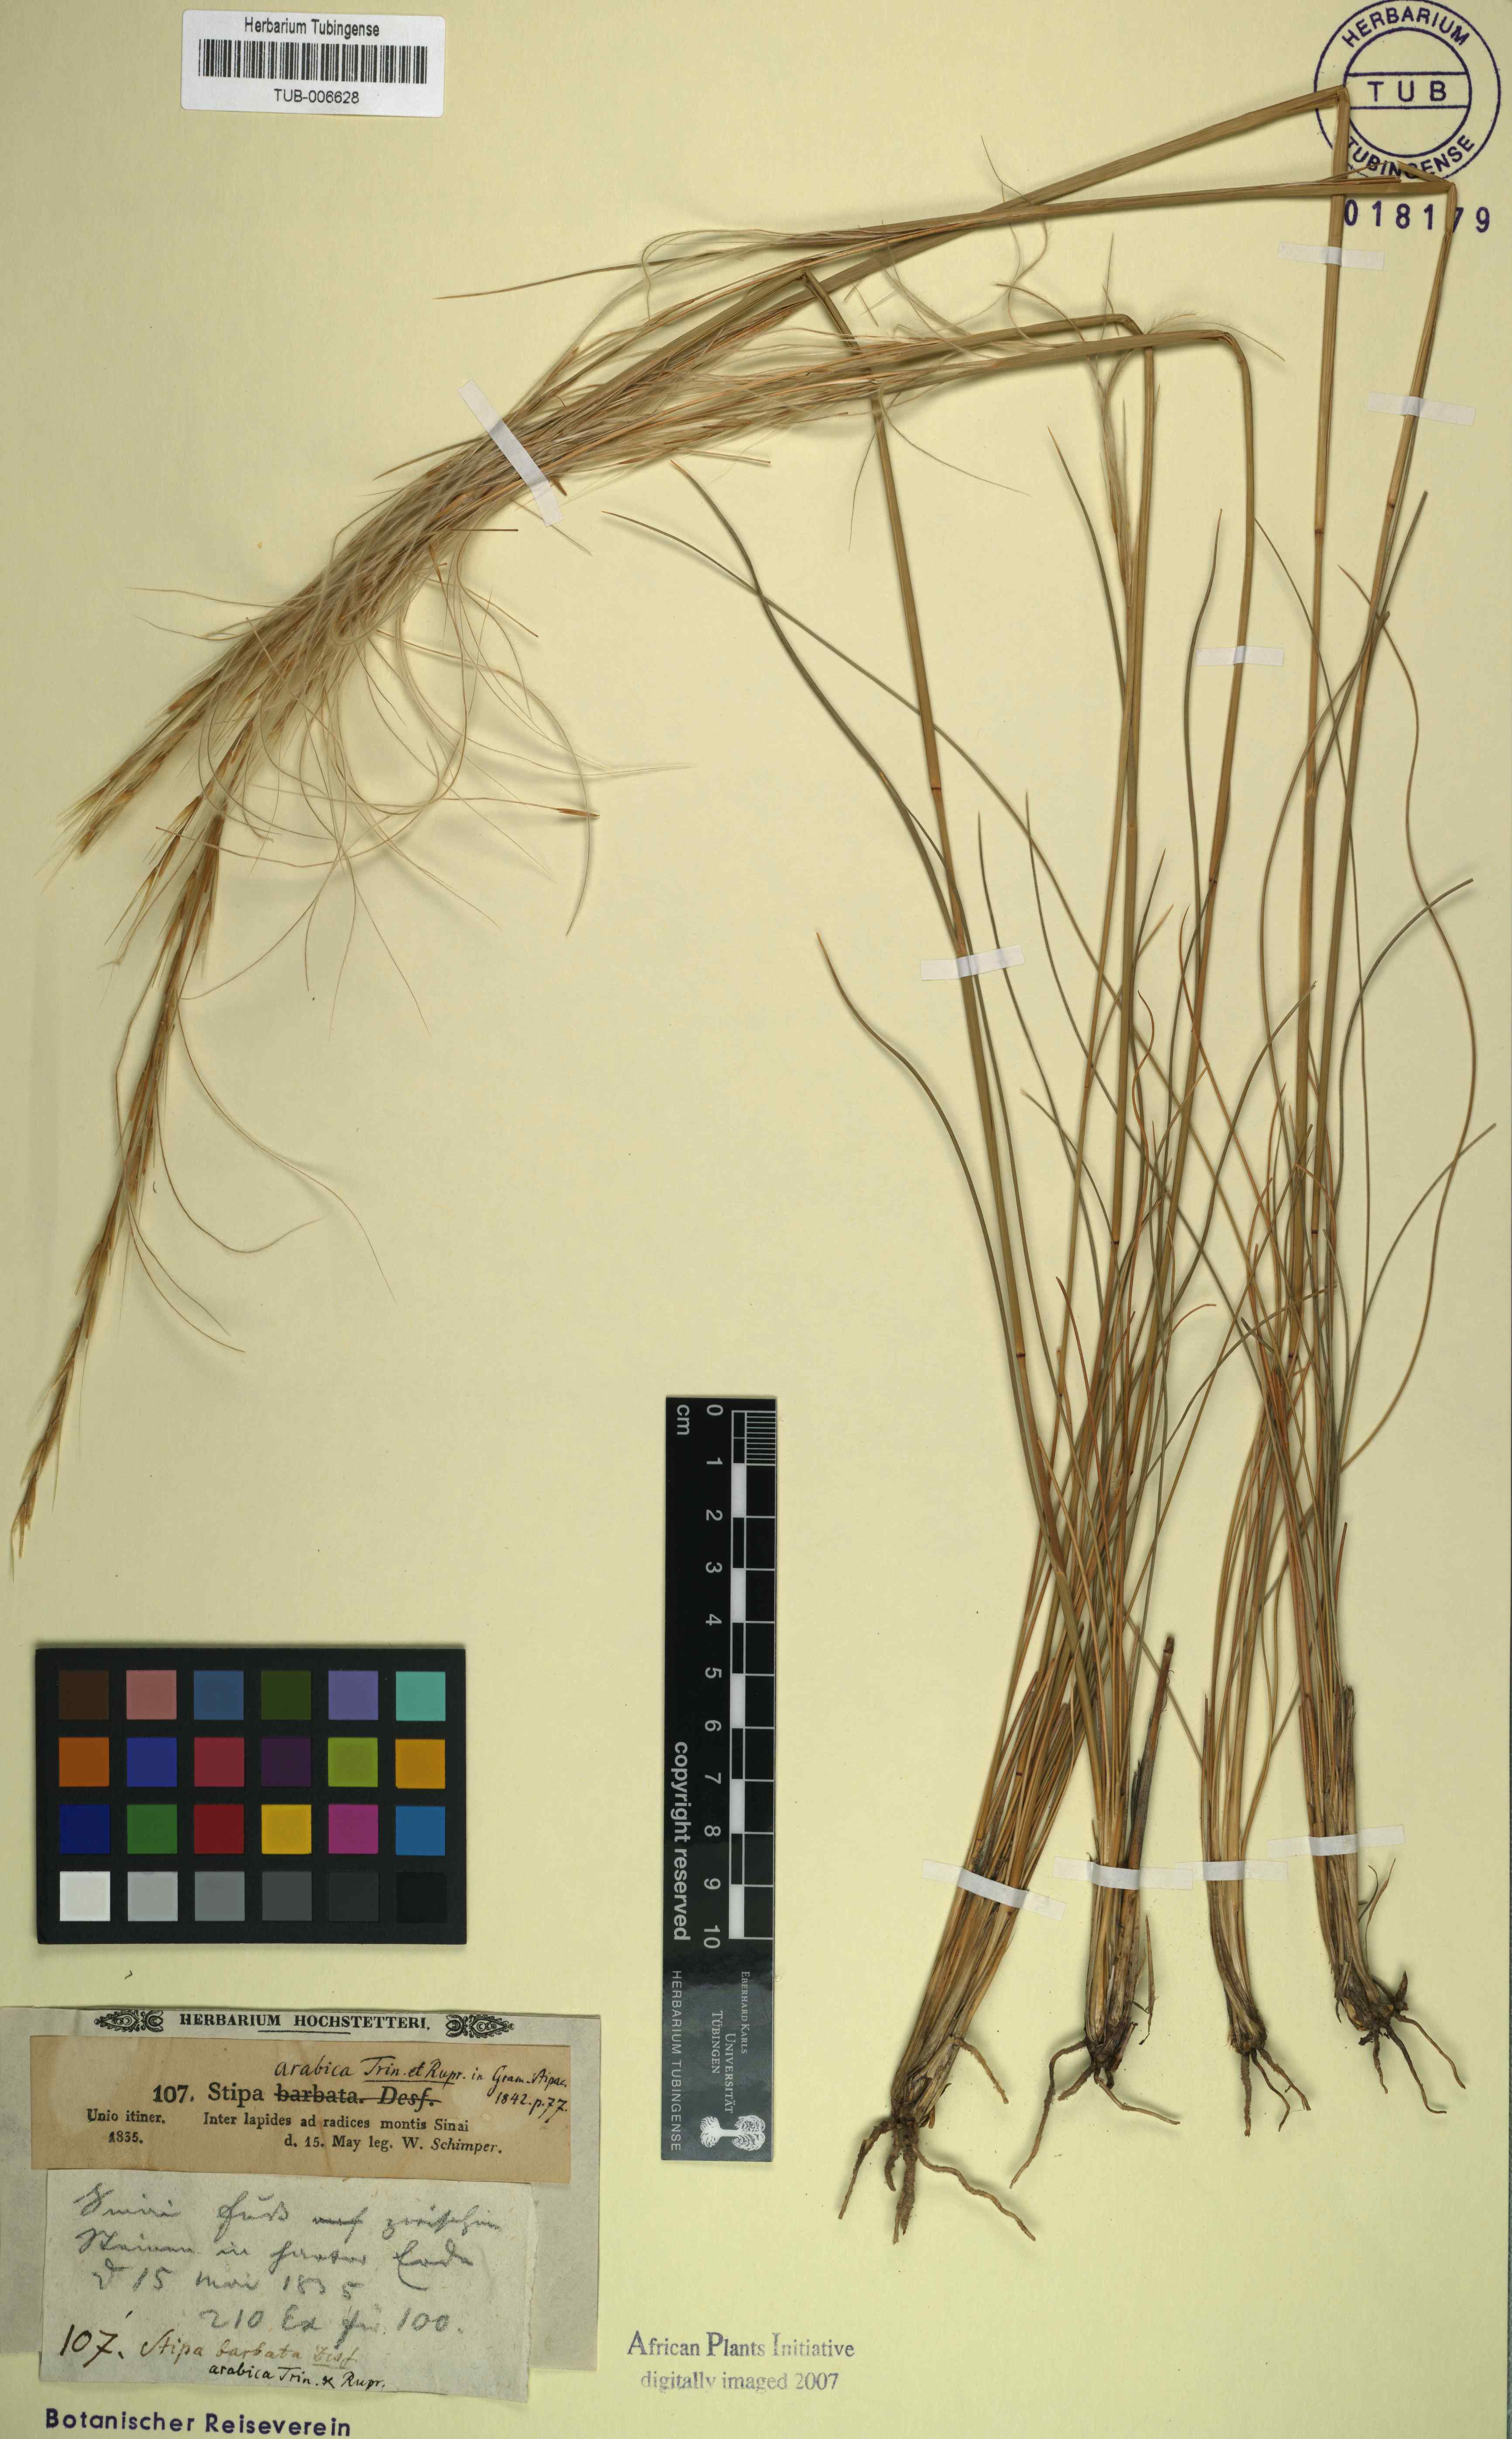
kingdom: Plantae
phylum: Tracheophyta
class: Liliopsida
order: Poales
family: Poaceae
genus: Stipa
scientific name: Stipa arabica
